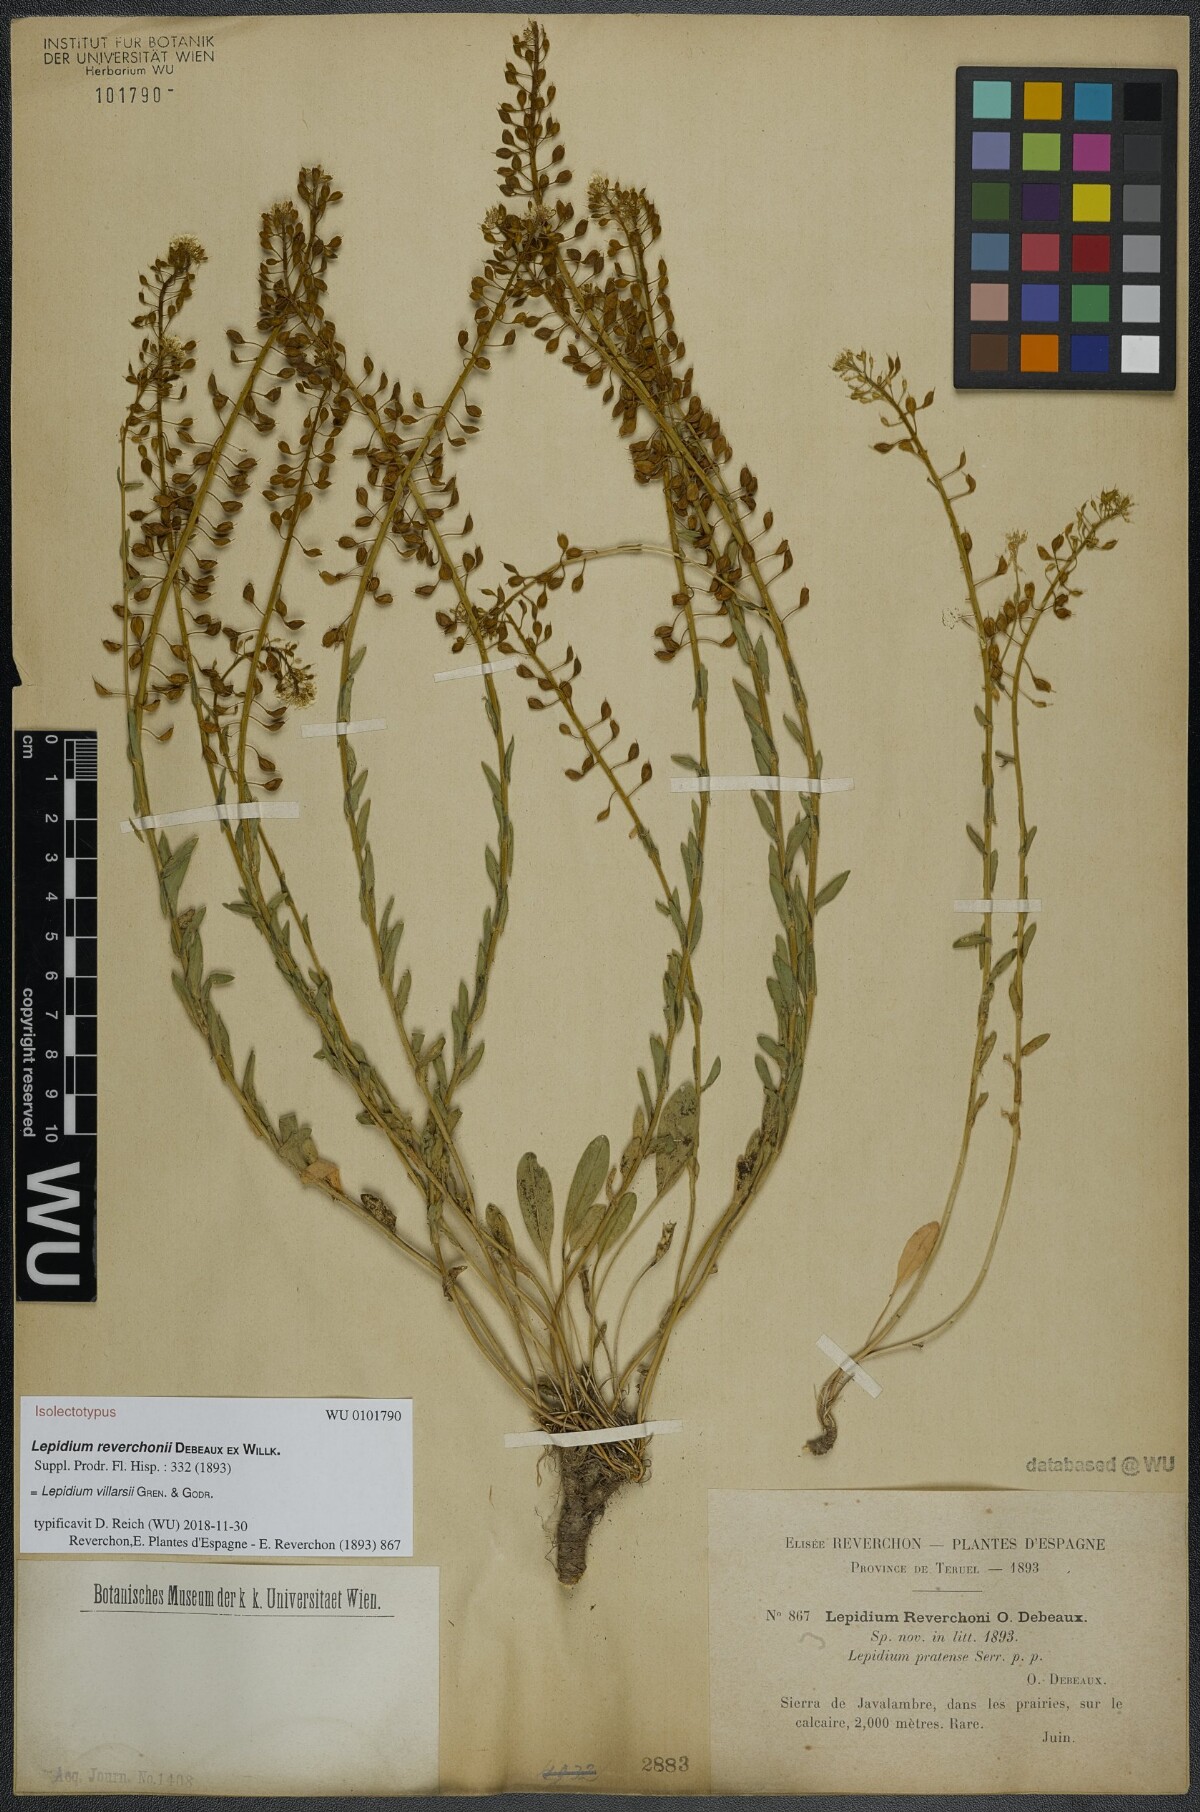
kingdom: Plantae
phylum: Tracheophyta
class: Magnoliopsida
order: Brassicales
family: Brassicaceae
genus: Lepidium
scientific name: Lepidium villarsii
